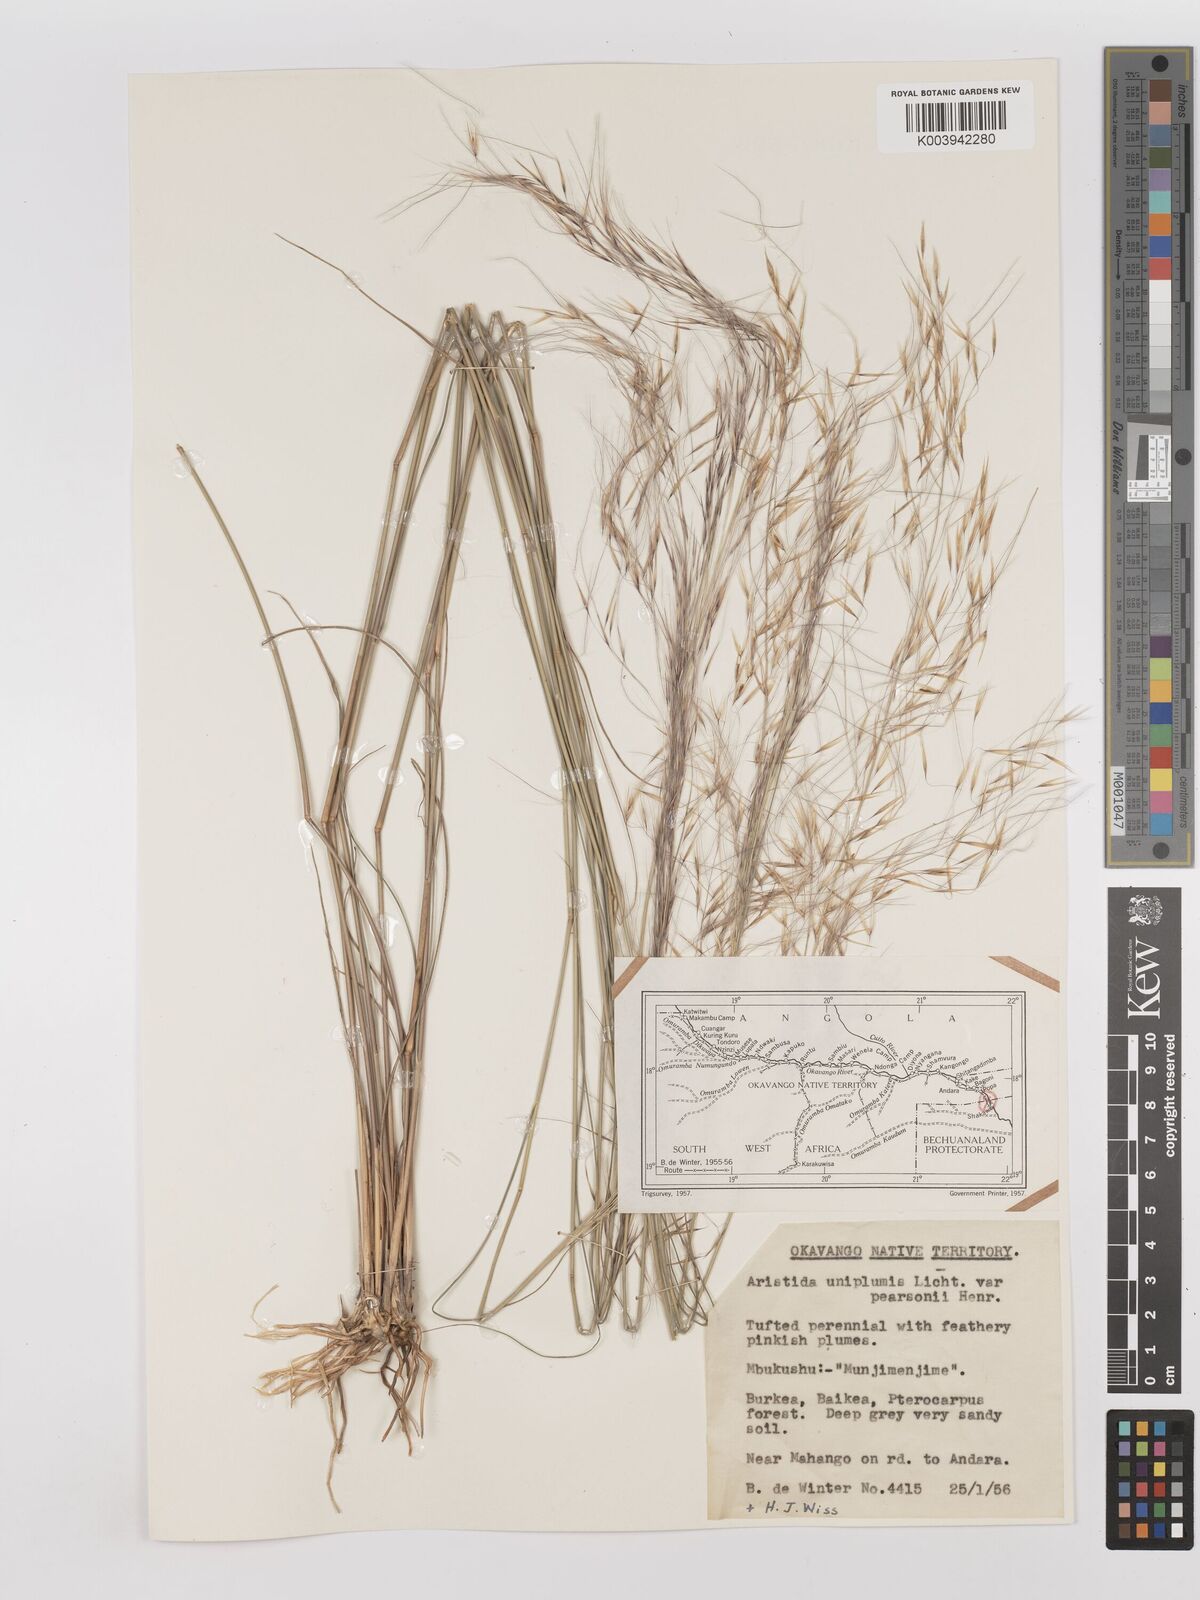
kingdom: Plantae
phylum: Tracheophyta
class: Liliopsida
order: Poales
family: Poaceae
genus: Stipagrostis
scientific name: Stipagrostis uniplumis
